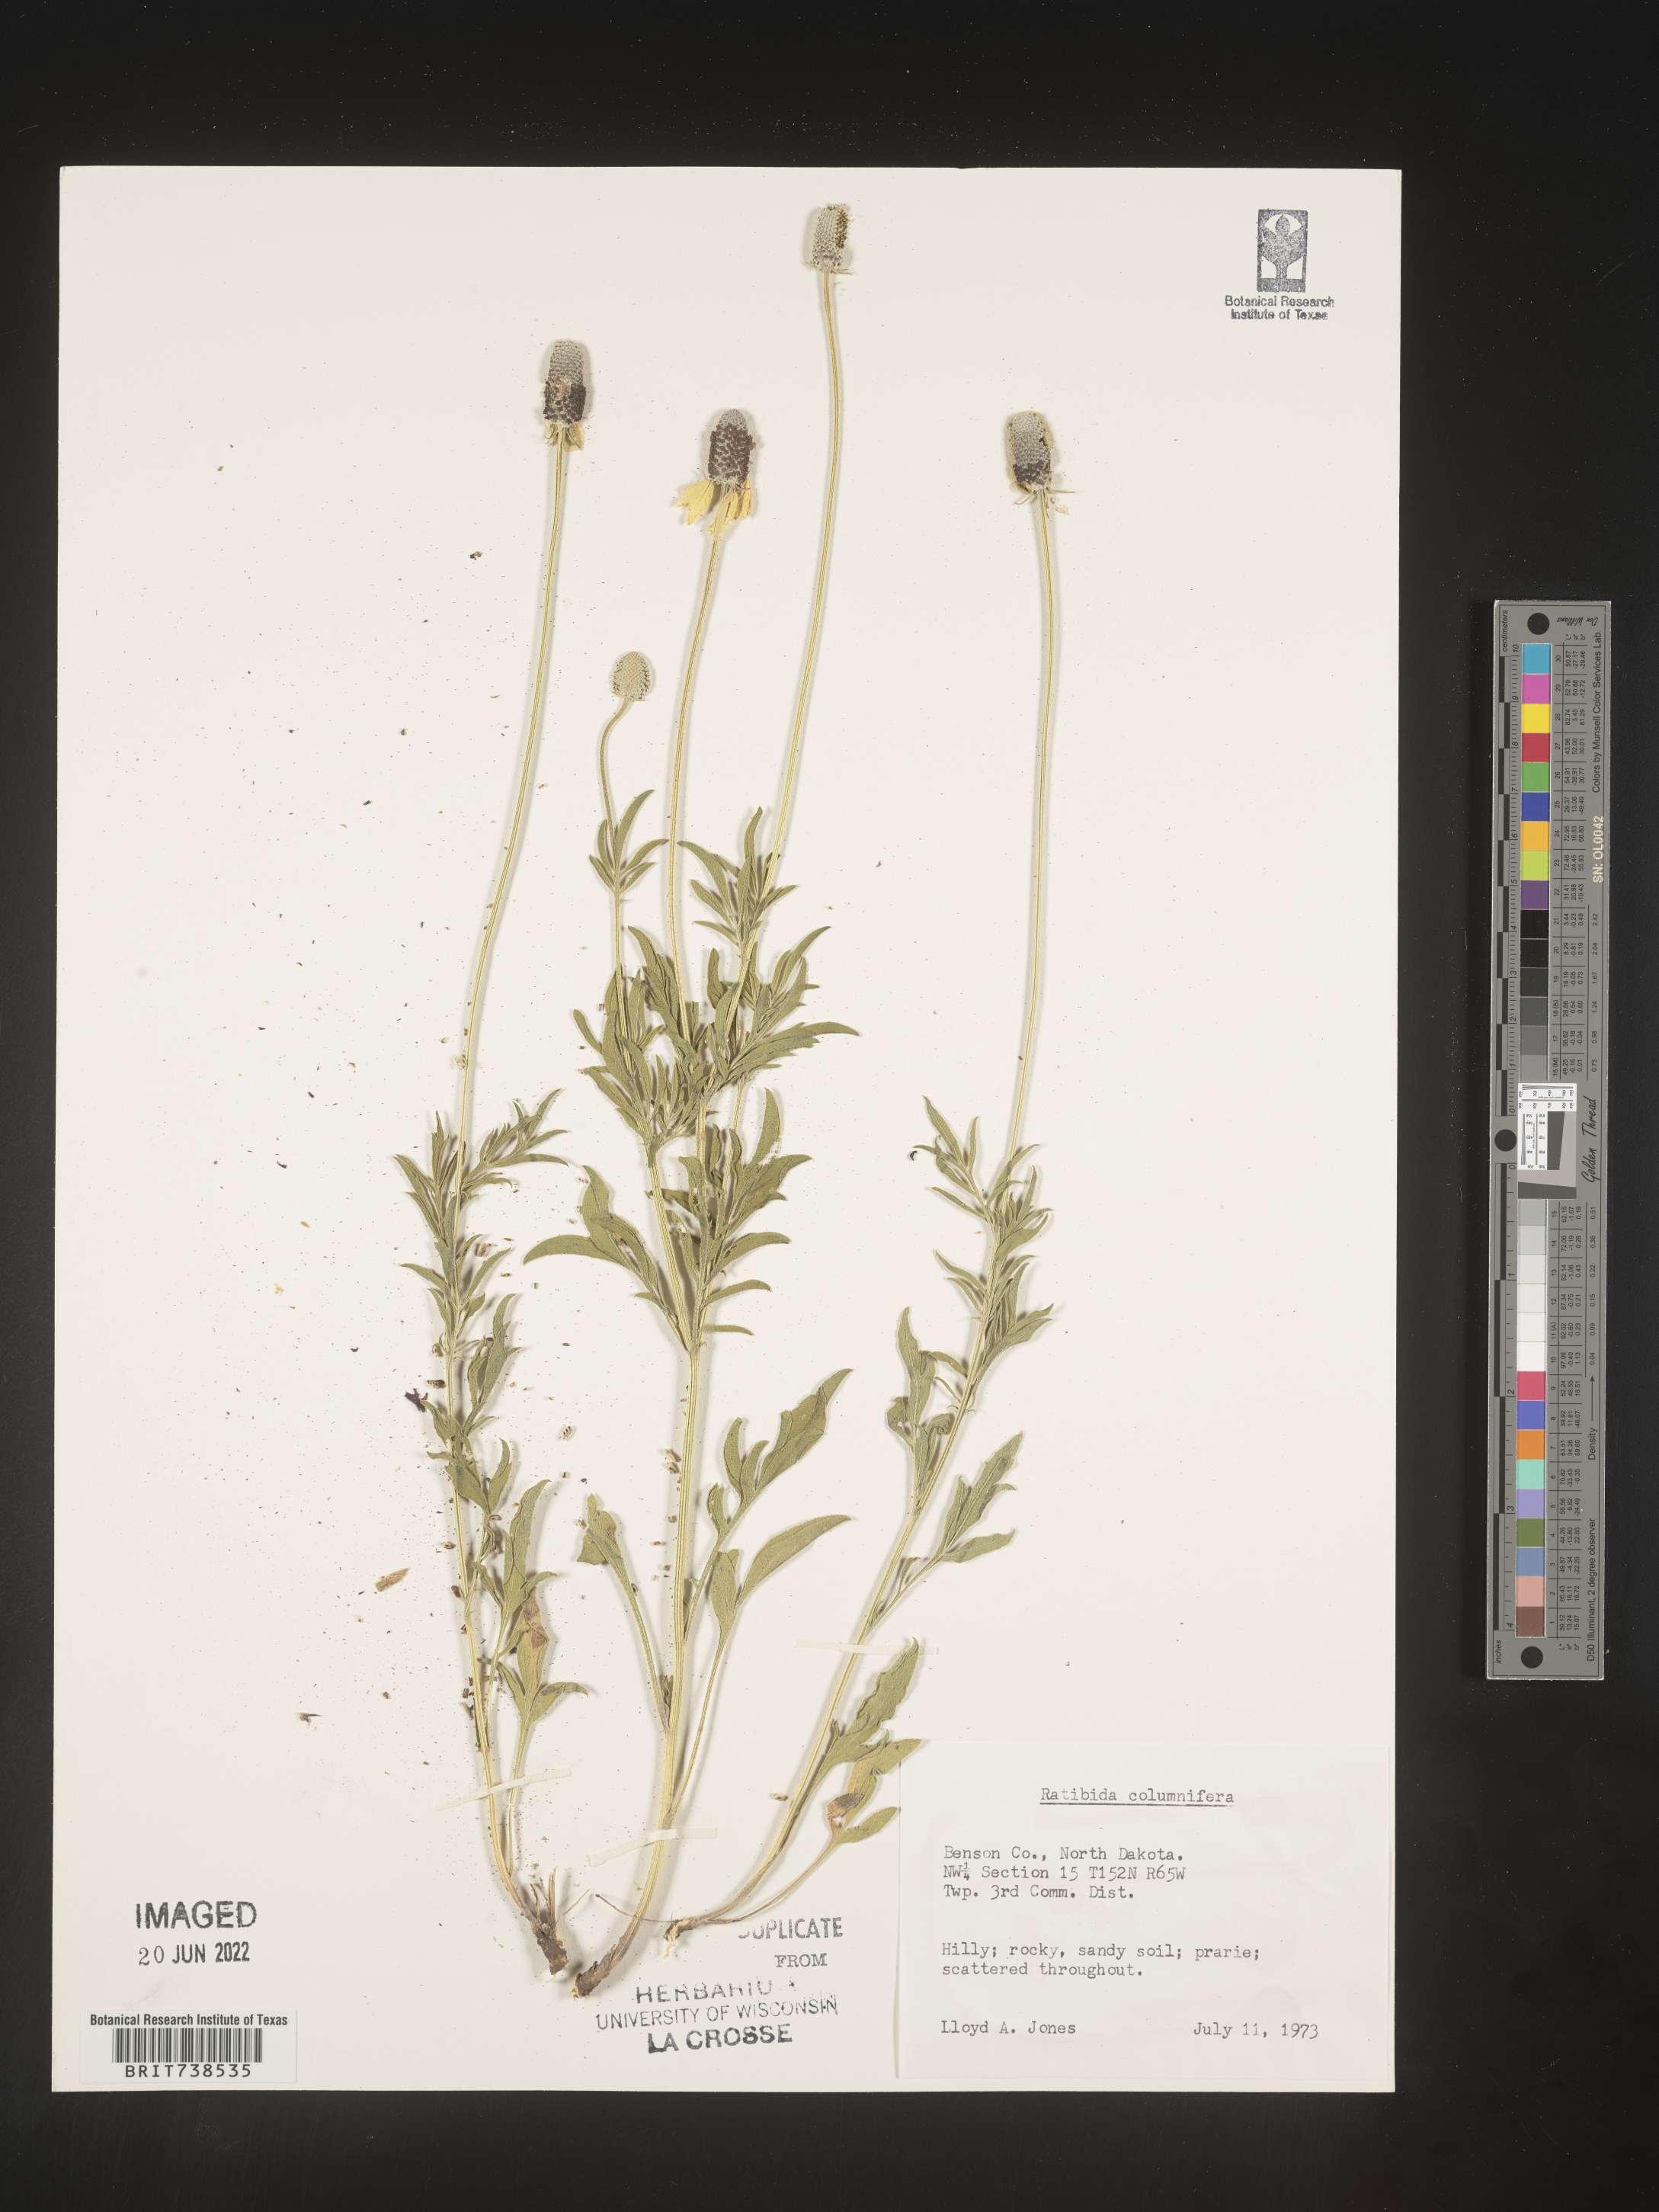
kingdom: Plantae
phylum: Tracheophyta
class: Magnoliopsida
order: Asterales
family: Asteraceae
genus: Ratibida
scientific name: Ratibida columnifera
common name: Prairie coneflower
